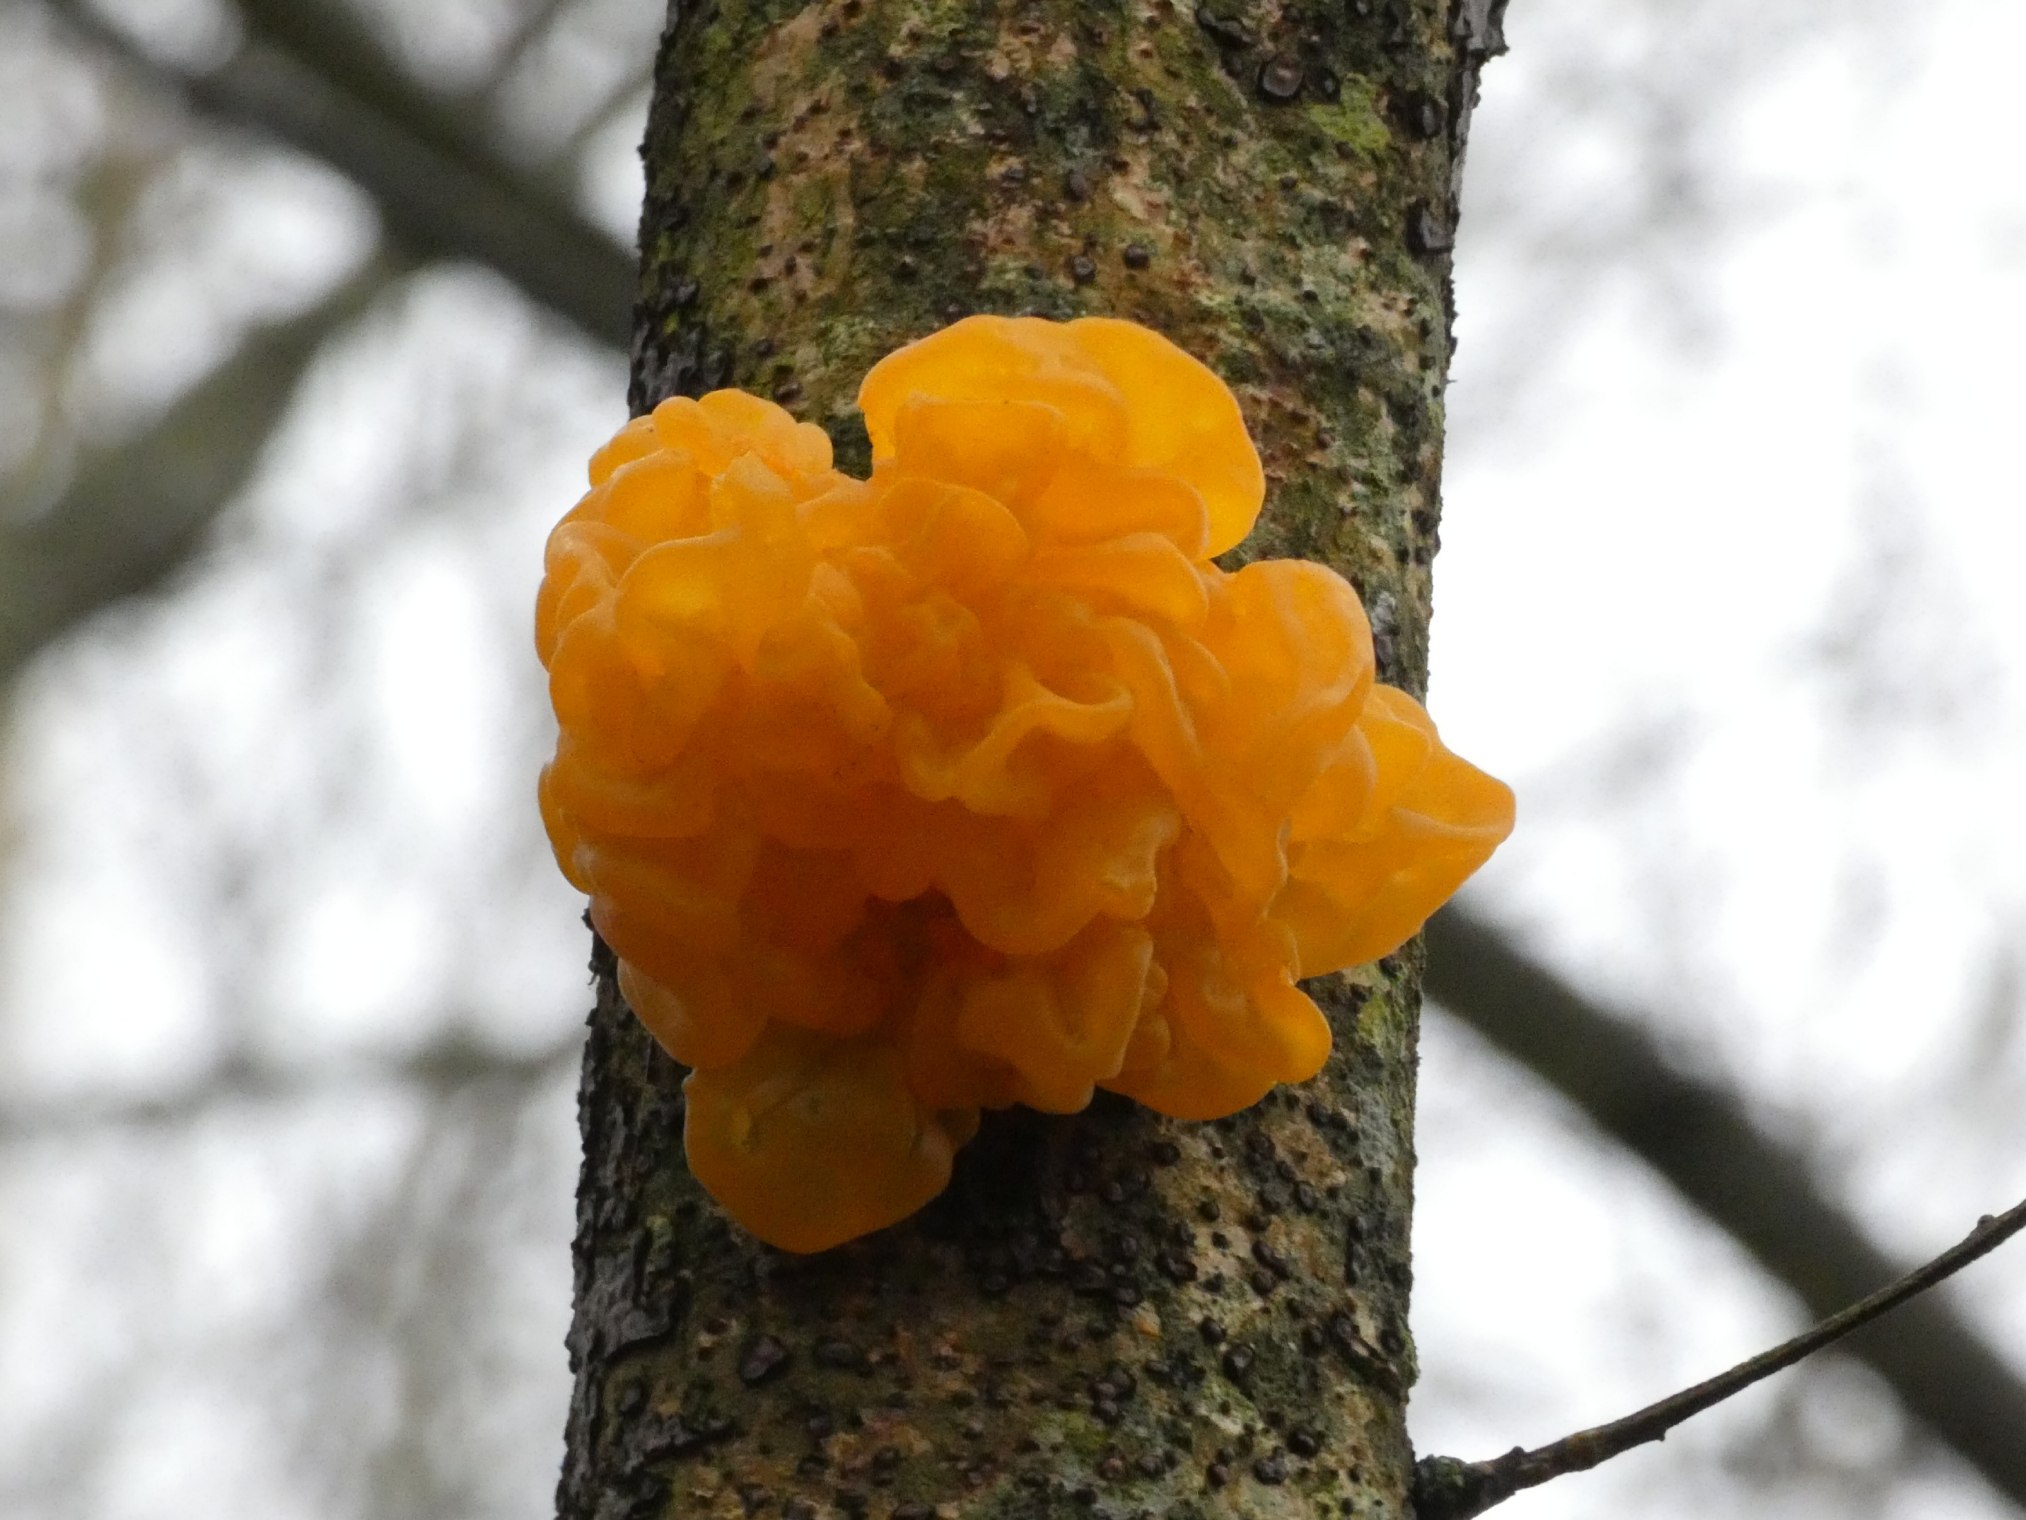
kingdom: Fungi
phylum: Basidiomycota
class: Tremellomycetes
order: Tremellales
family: Tremellaceae
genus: Tremella
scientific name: Tremella mesenterica
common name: Gul bævresvamp
